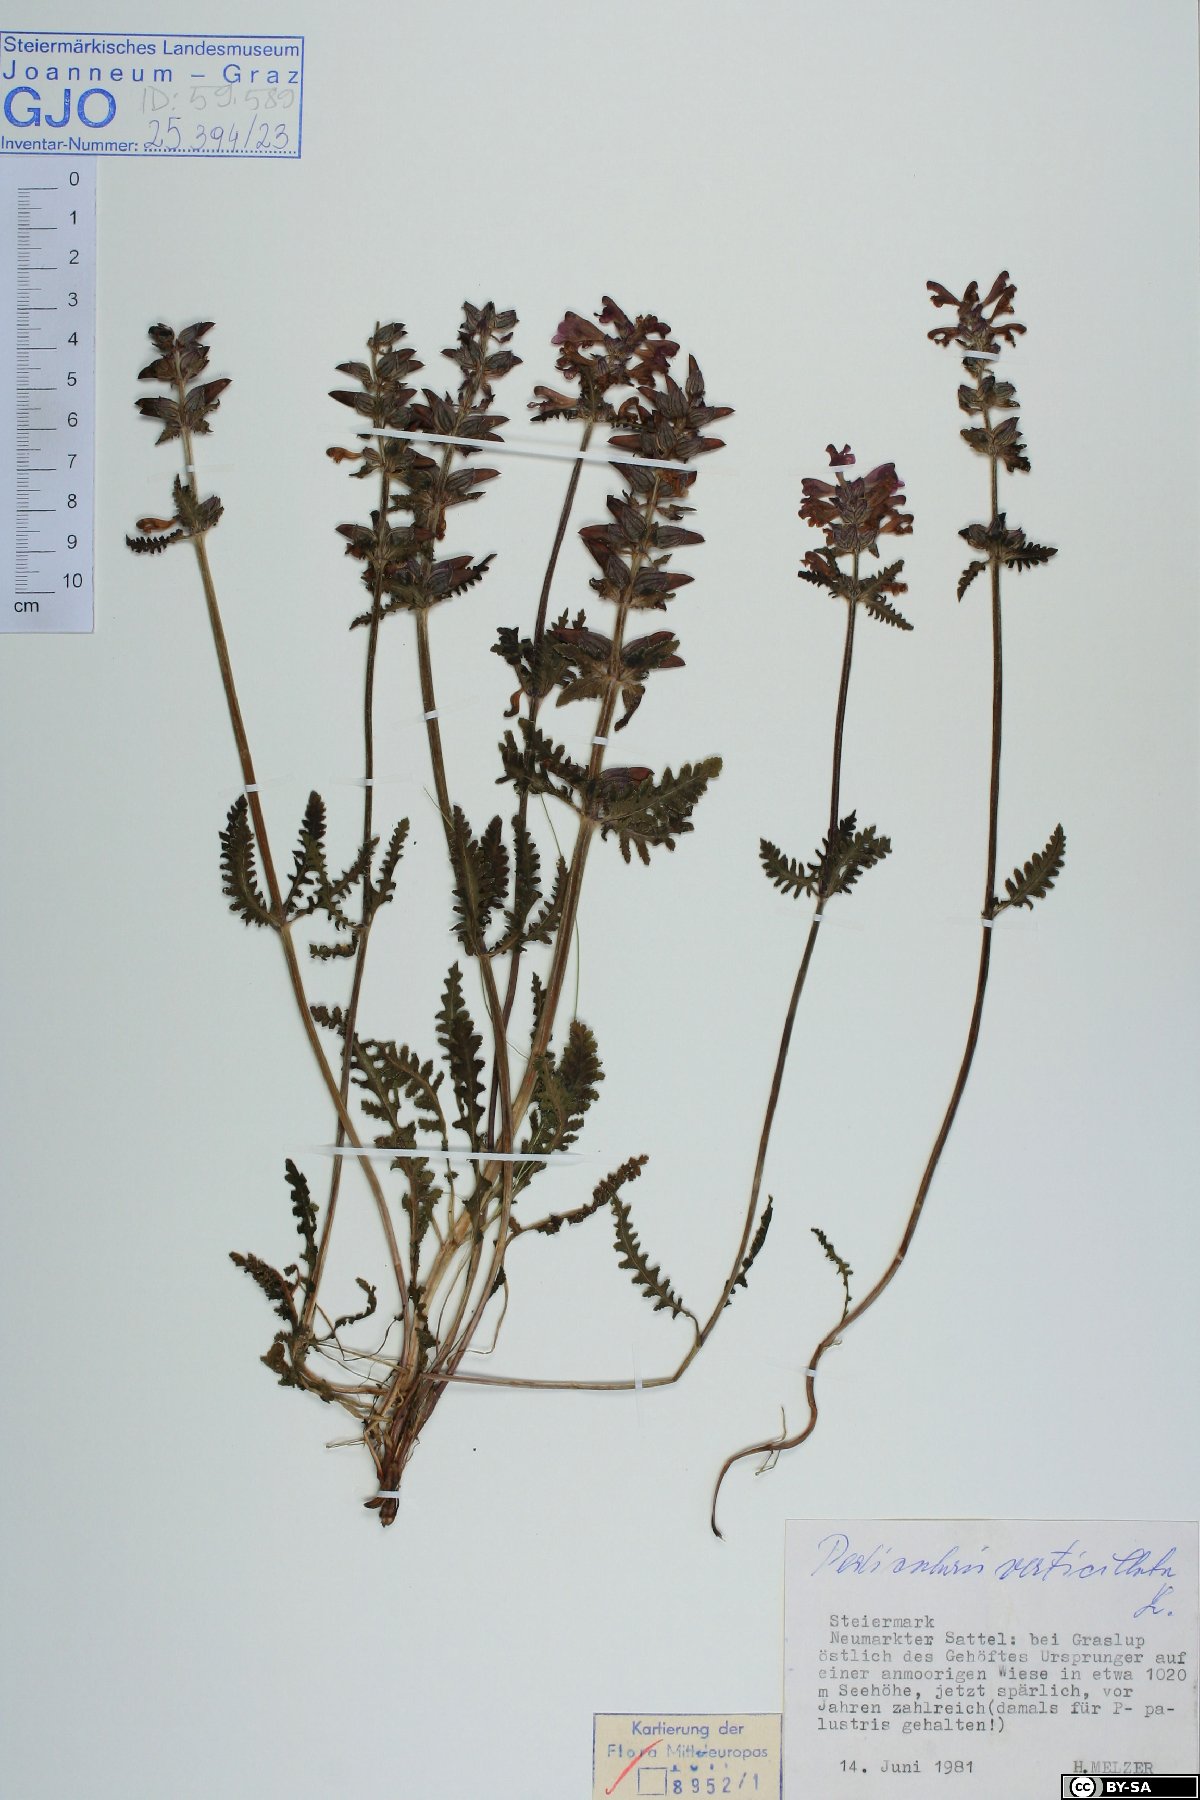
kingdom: Plantae
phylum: Tracheophyta
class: Magnoliopsida
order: Lamiales
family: Orobanchaceae
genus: Pedicularis
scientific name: Pedicularis verticillata
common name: Whorled lousewort
